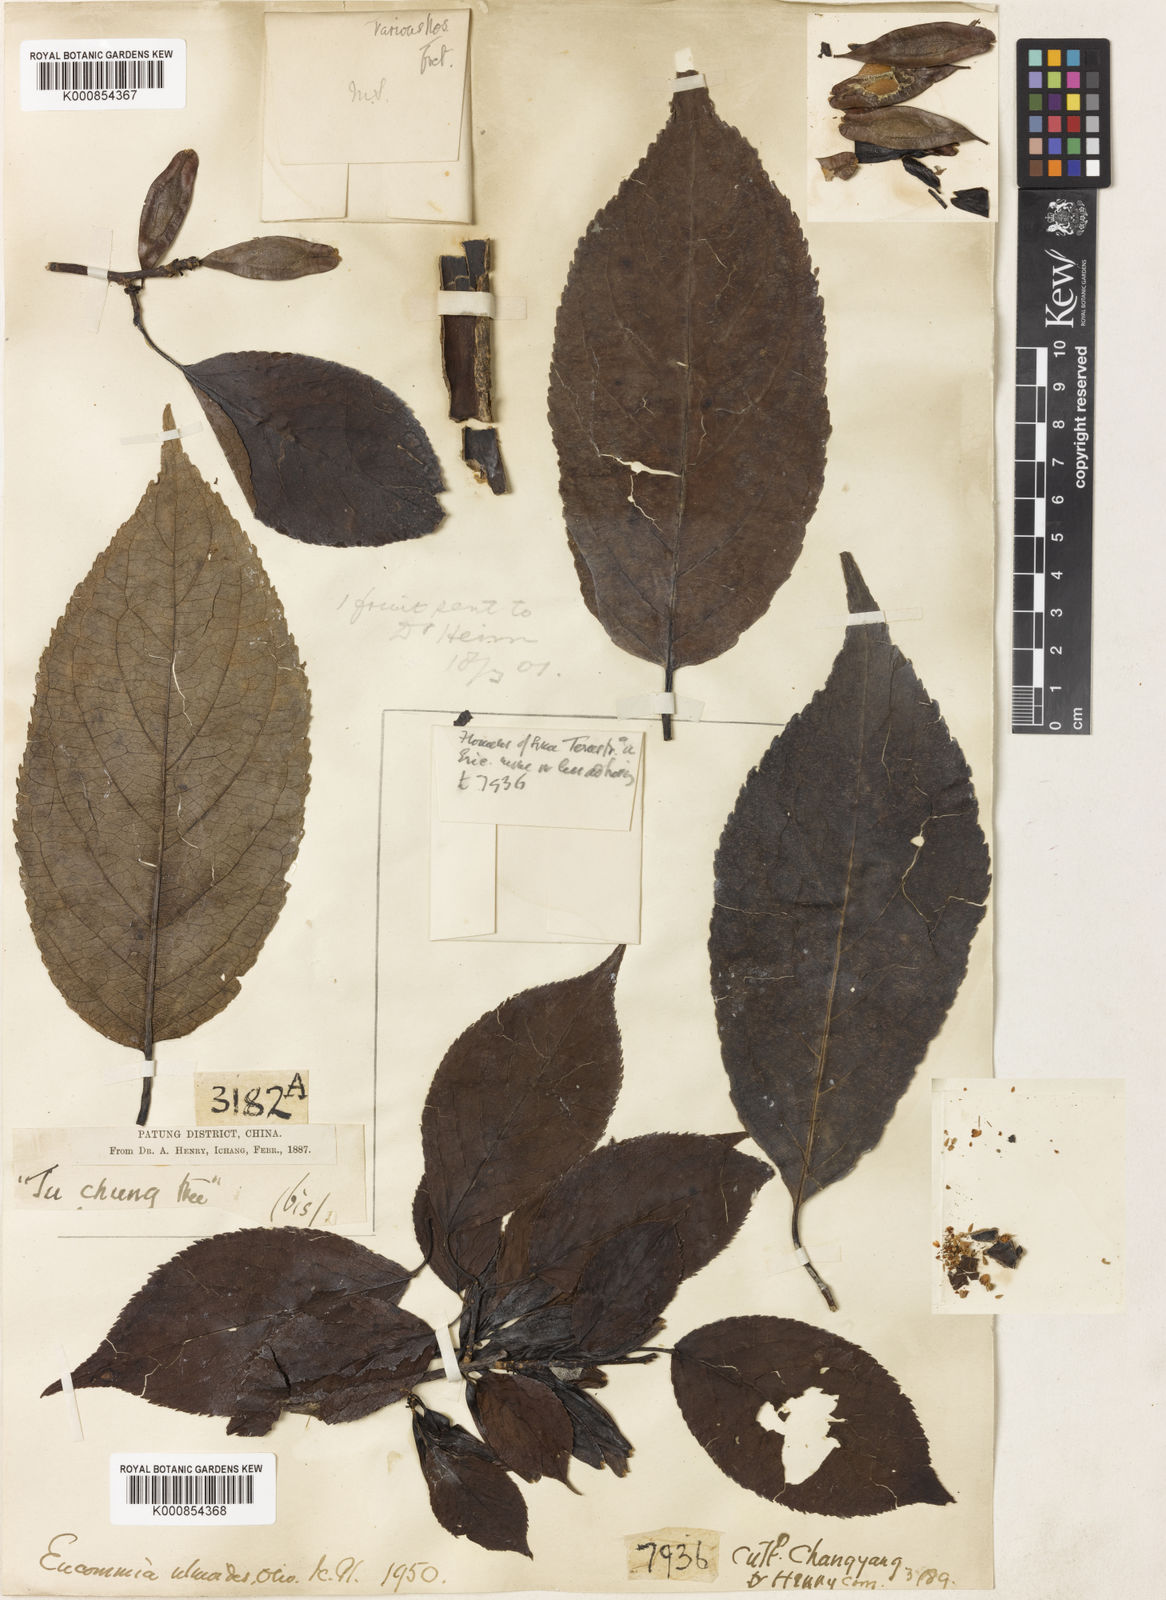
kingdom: Plantae
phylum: Tracheophyta
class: Magnoliopsida
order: Garryales
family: Eucommiaceae
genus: Eucommia
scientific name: Eucommia ulmoides
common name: Woody plant
